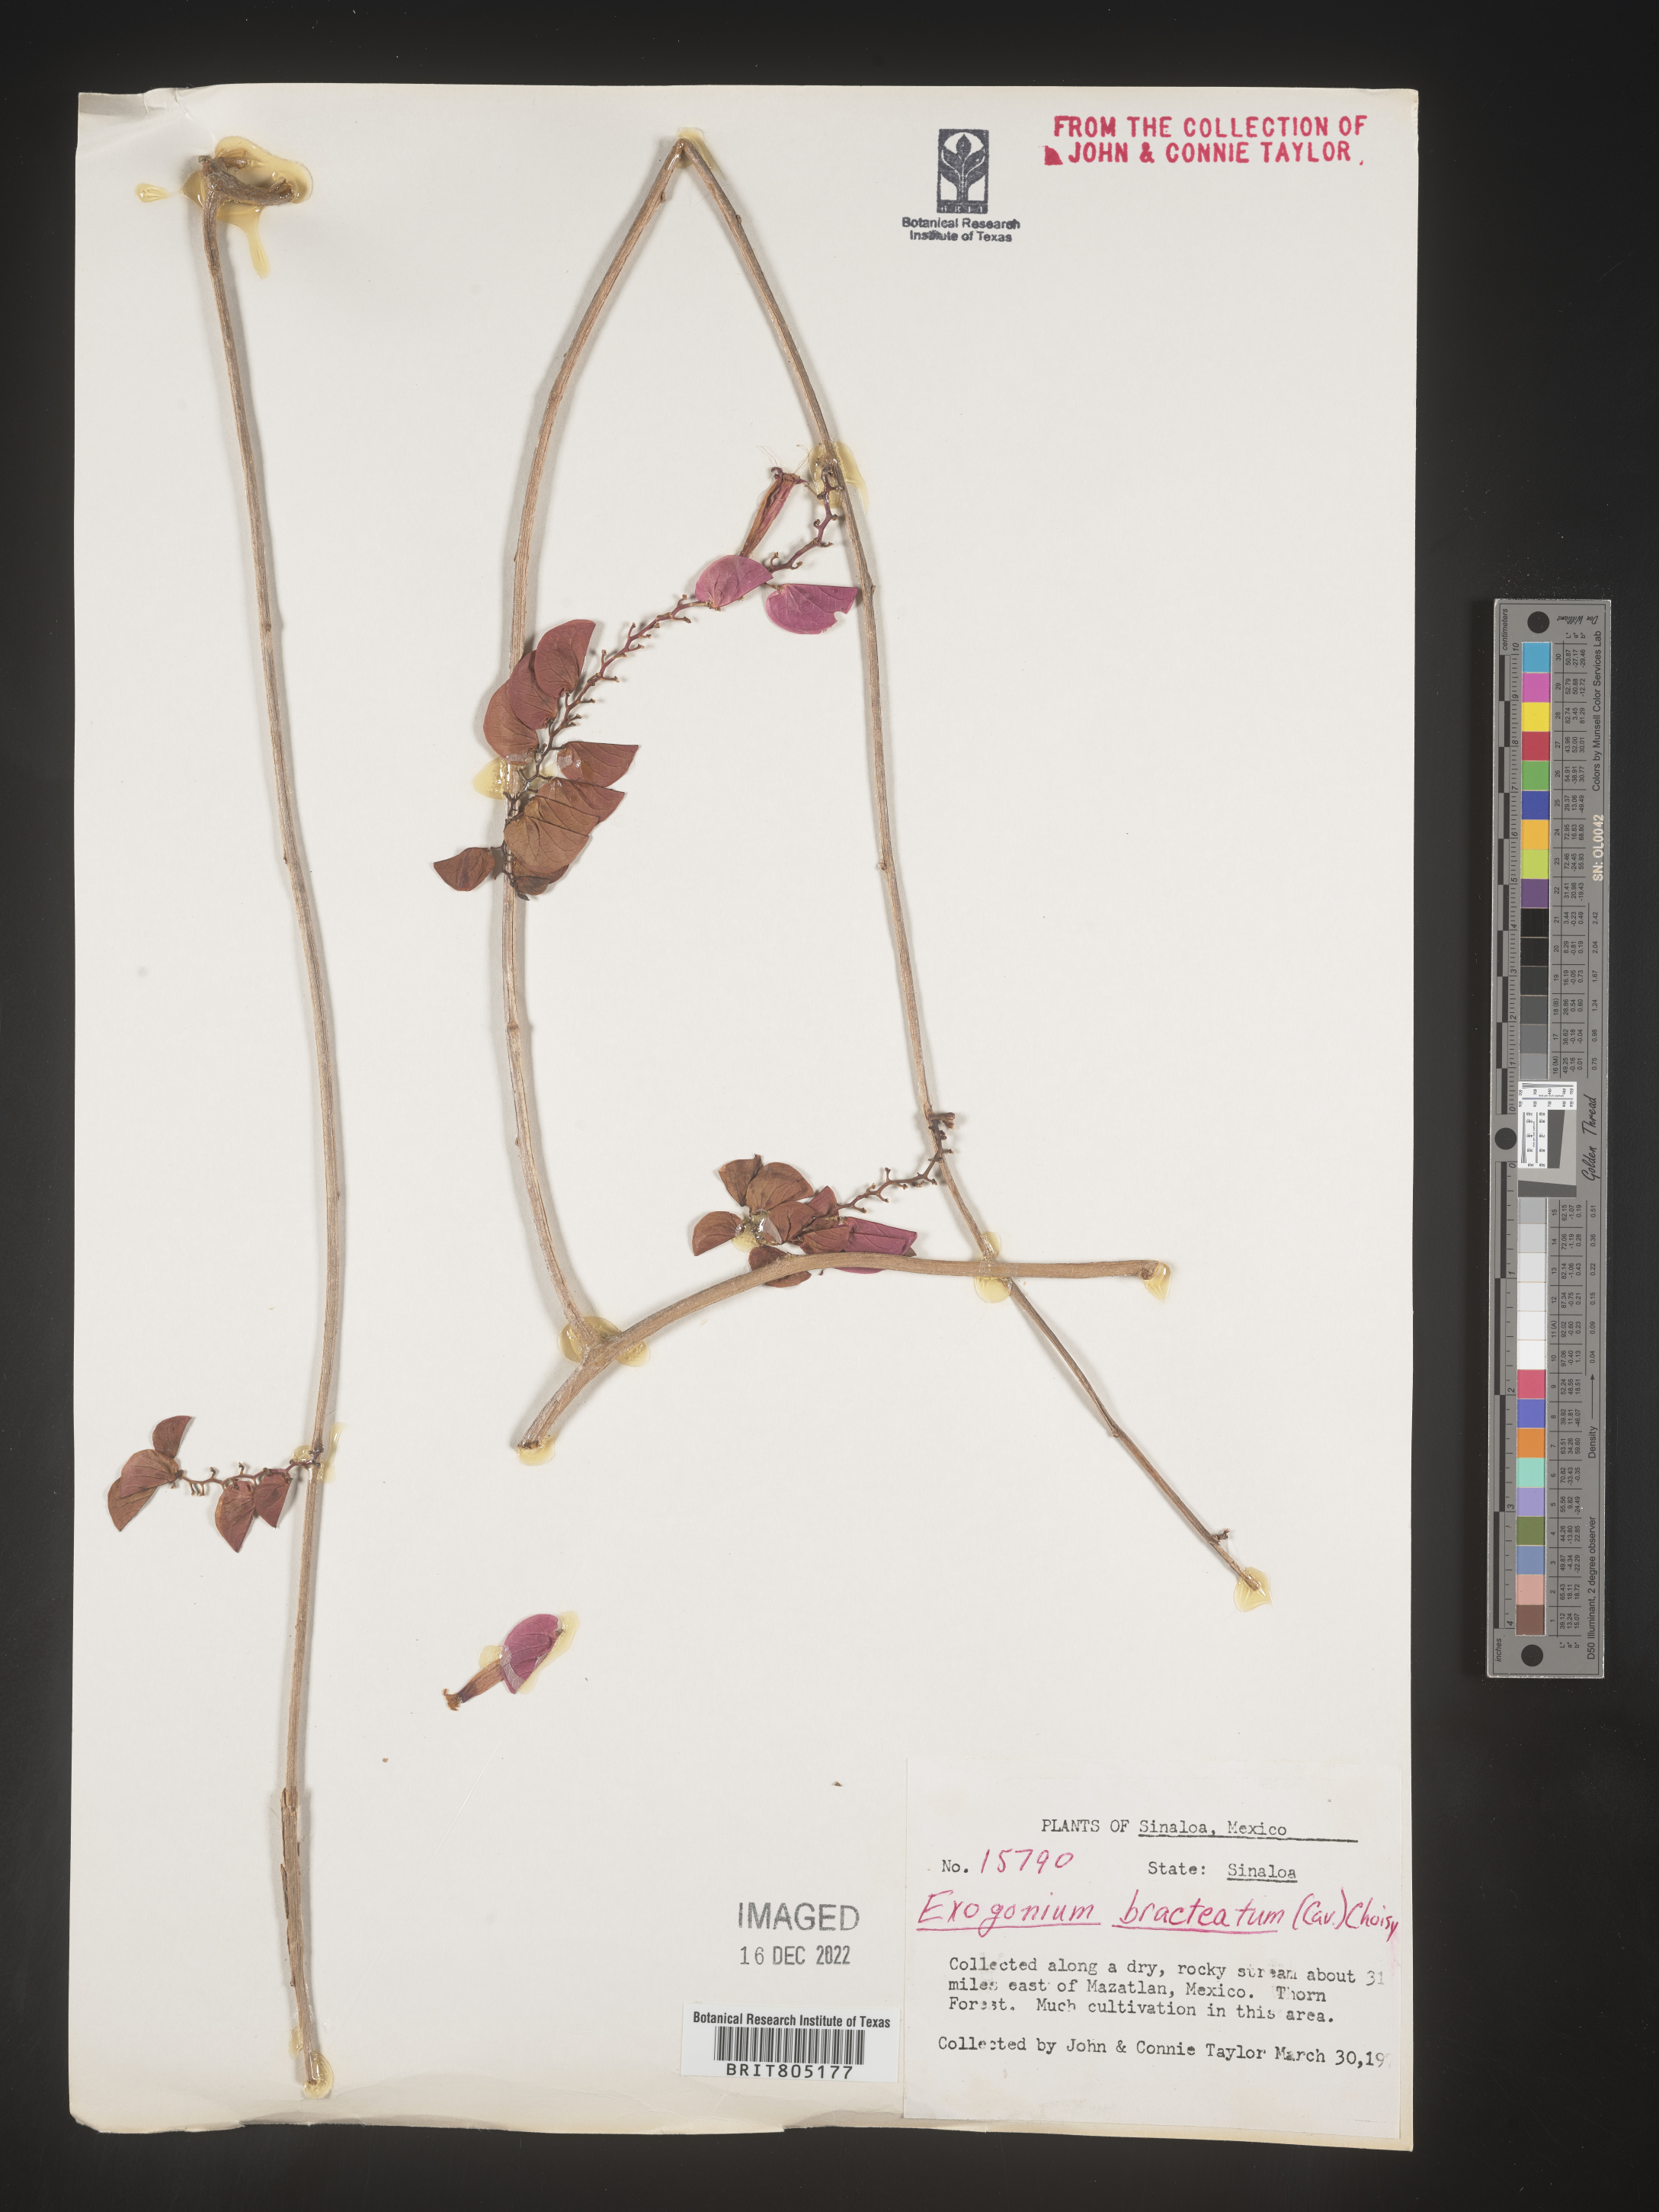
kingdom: Plantae
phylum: Tracheophyta
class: Magnoliopsida
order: Solanales
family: Convolvulaceae
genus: Ipomoea
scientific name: Ipomoea
